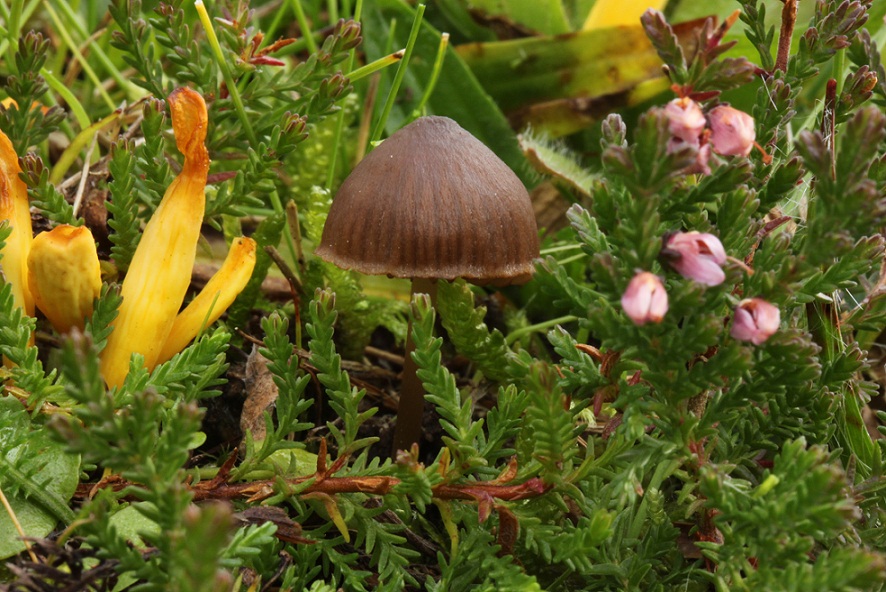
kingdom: Fungi
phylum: Basidiomycota
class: Agaricomycetes
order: Agaricales
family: Clavariaceae
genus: Clavulinopsis
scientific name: Clavulinopsis laeticolor
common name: flamme-køllesvamp
